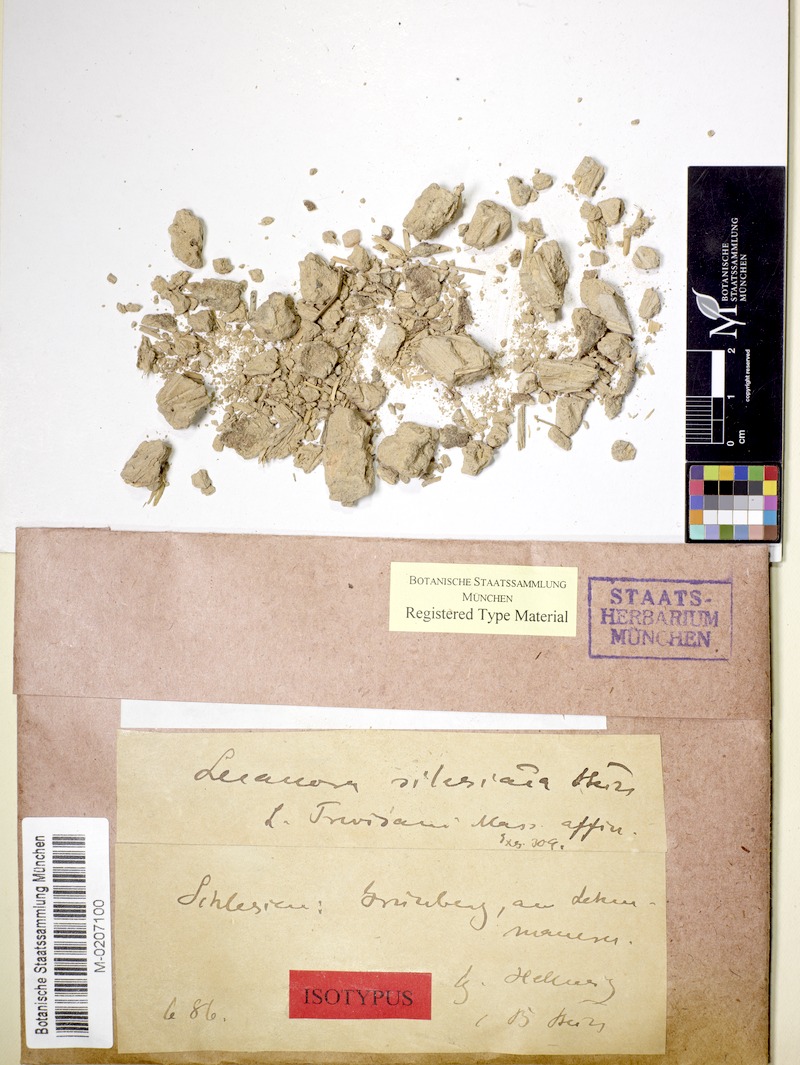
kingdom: Fungi
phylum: Ascomycota
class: Lecanoromycetes
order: Lecanorales
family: Lecanoraceae
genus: Lecanora
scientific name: Lecanora
